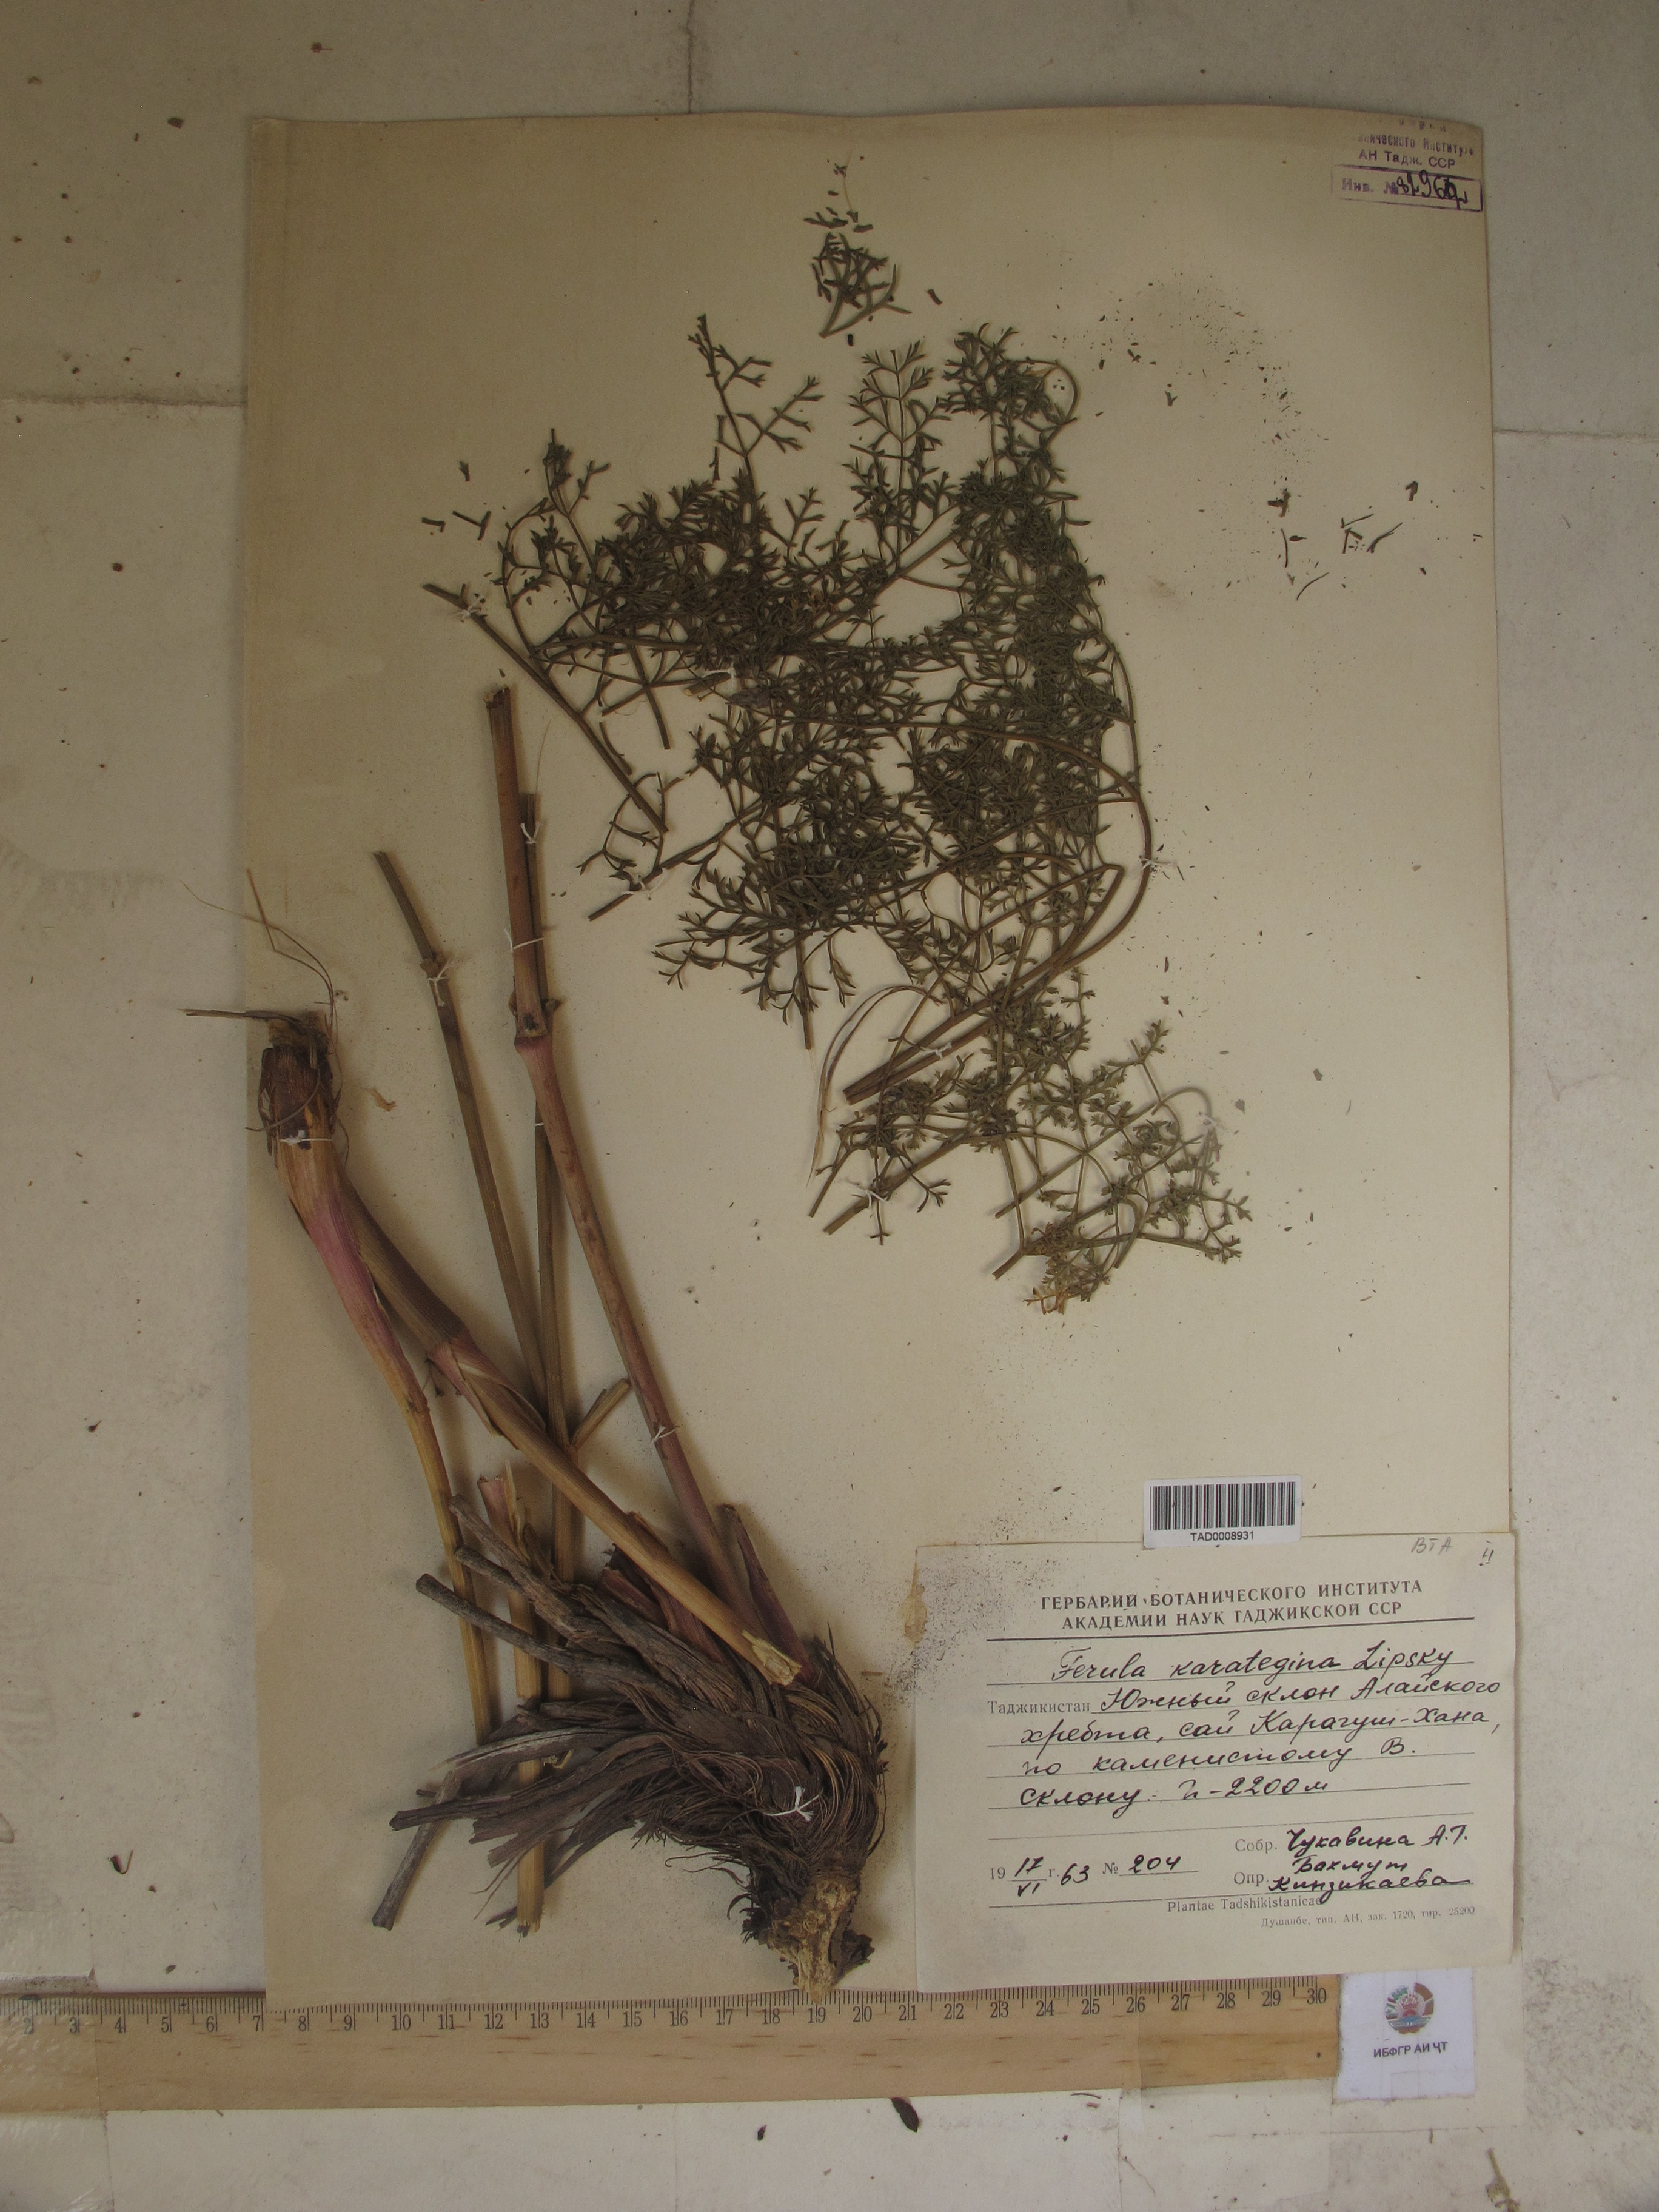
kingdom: Plantae
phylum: Tracheophyta
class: Magnoliopsida
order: Apiales
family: Apiaceae
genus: Ferula
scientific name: Ferula karategina
